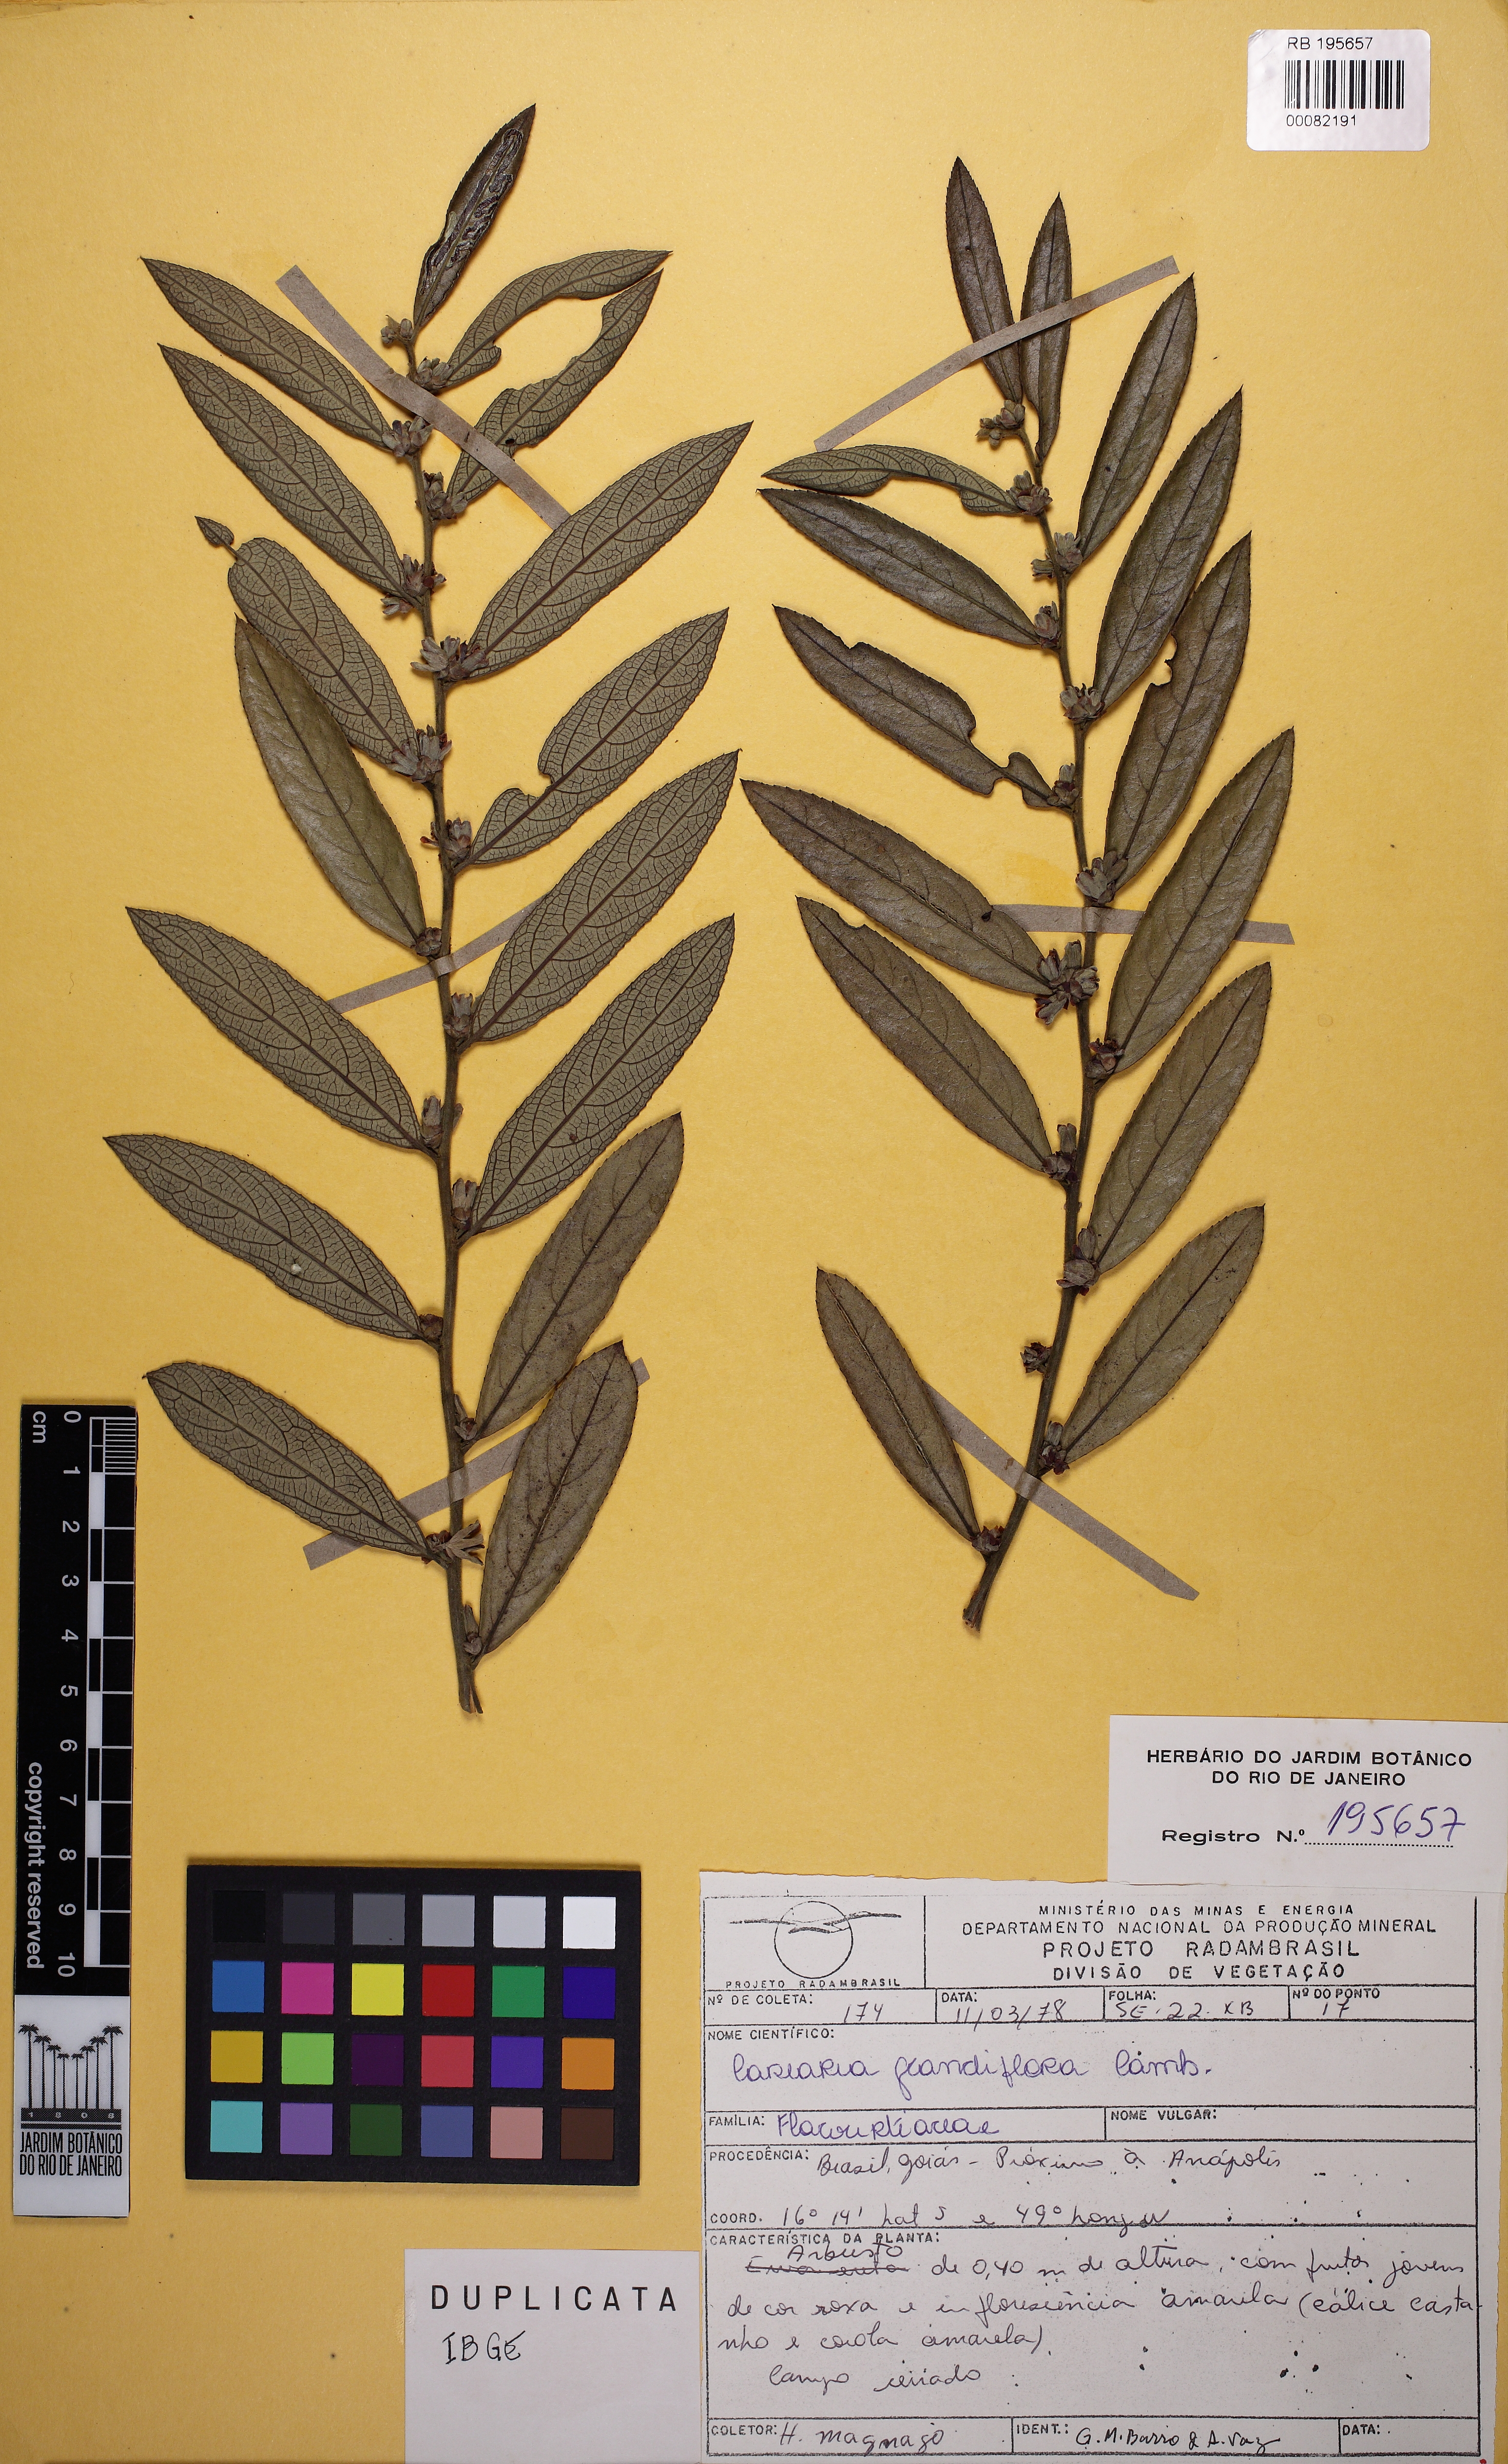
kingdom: Plantae
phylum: Tracheophyta
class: Magnoliopsida
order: Malpighiales
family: Salicaceae
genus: Casearia
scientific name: Casearia grandiflora
